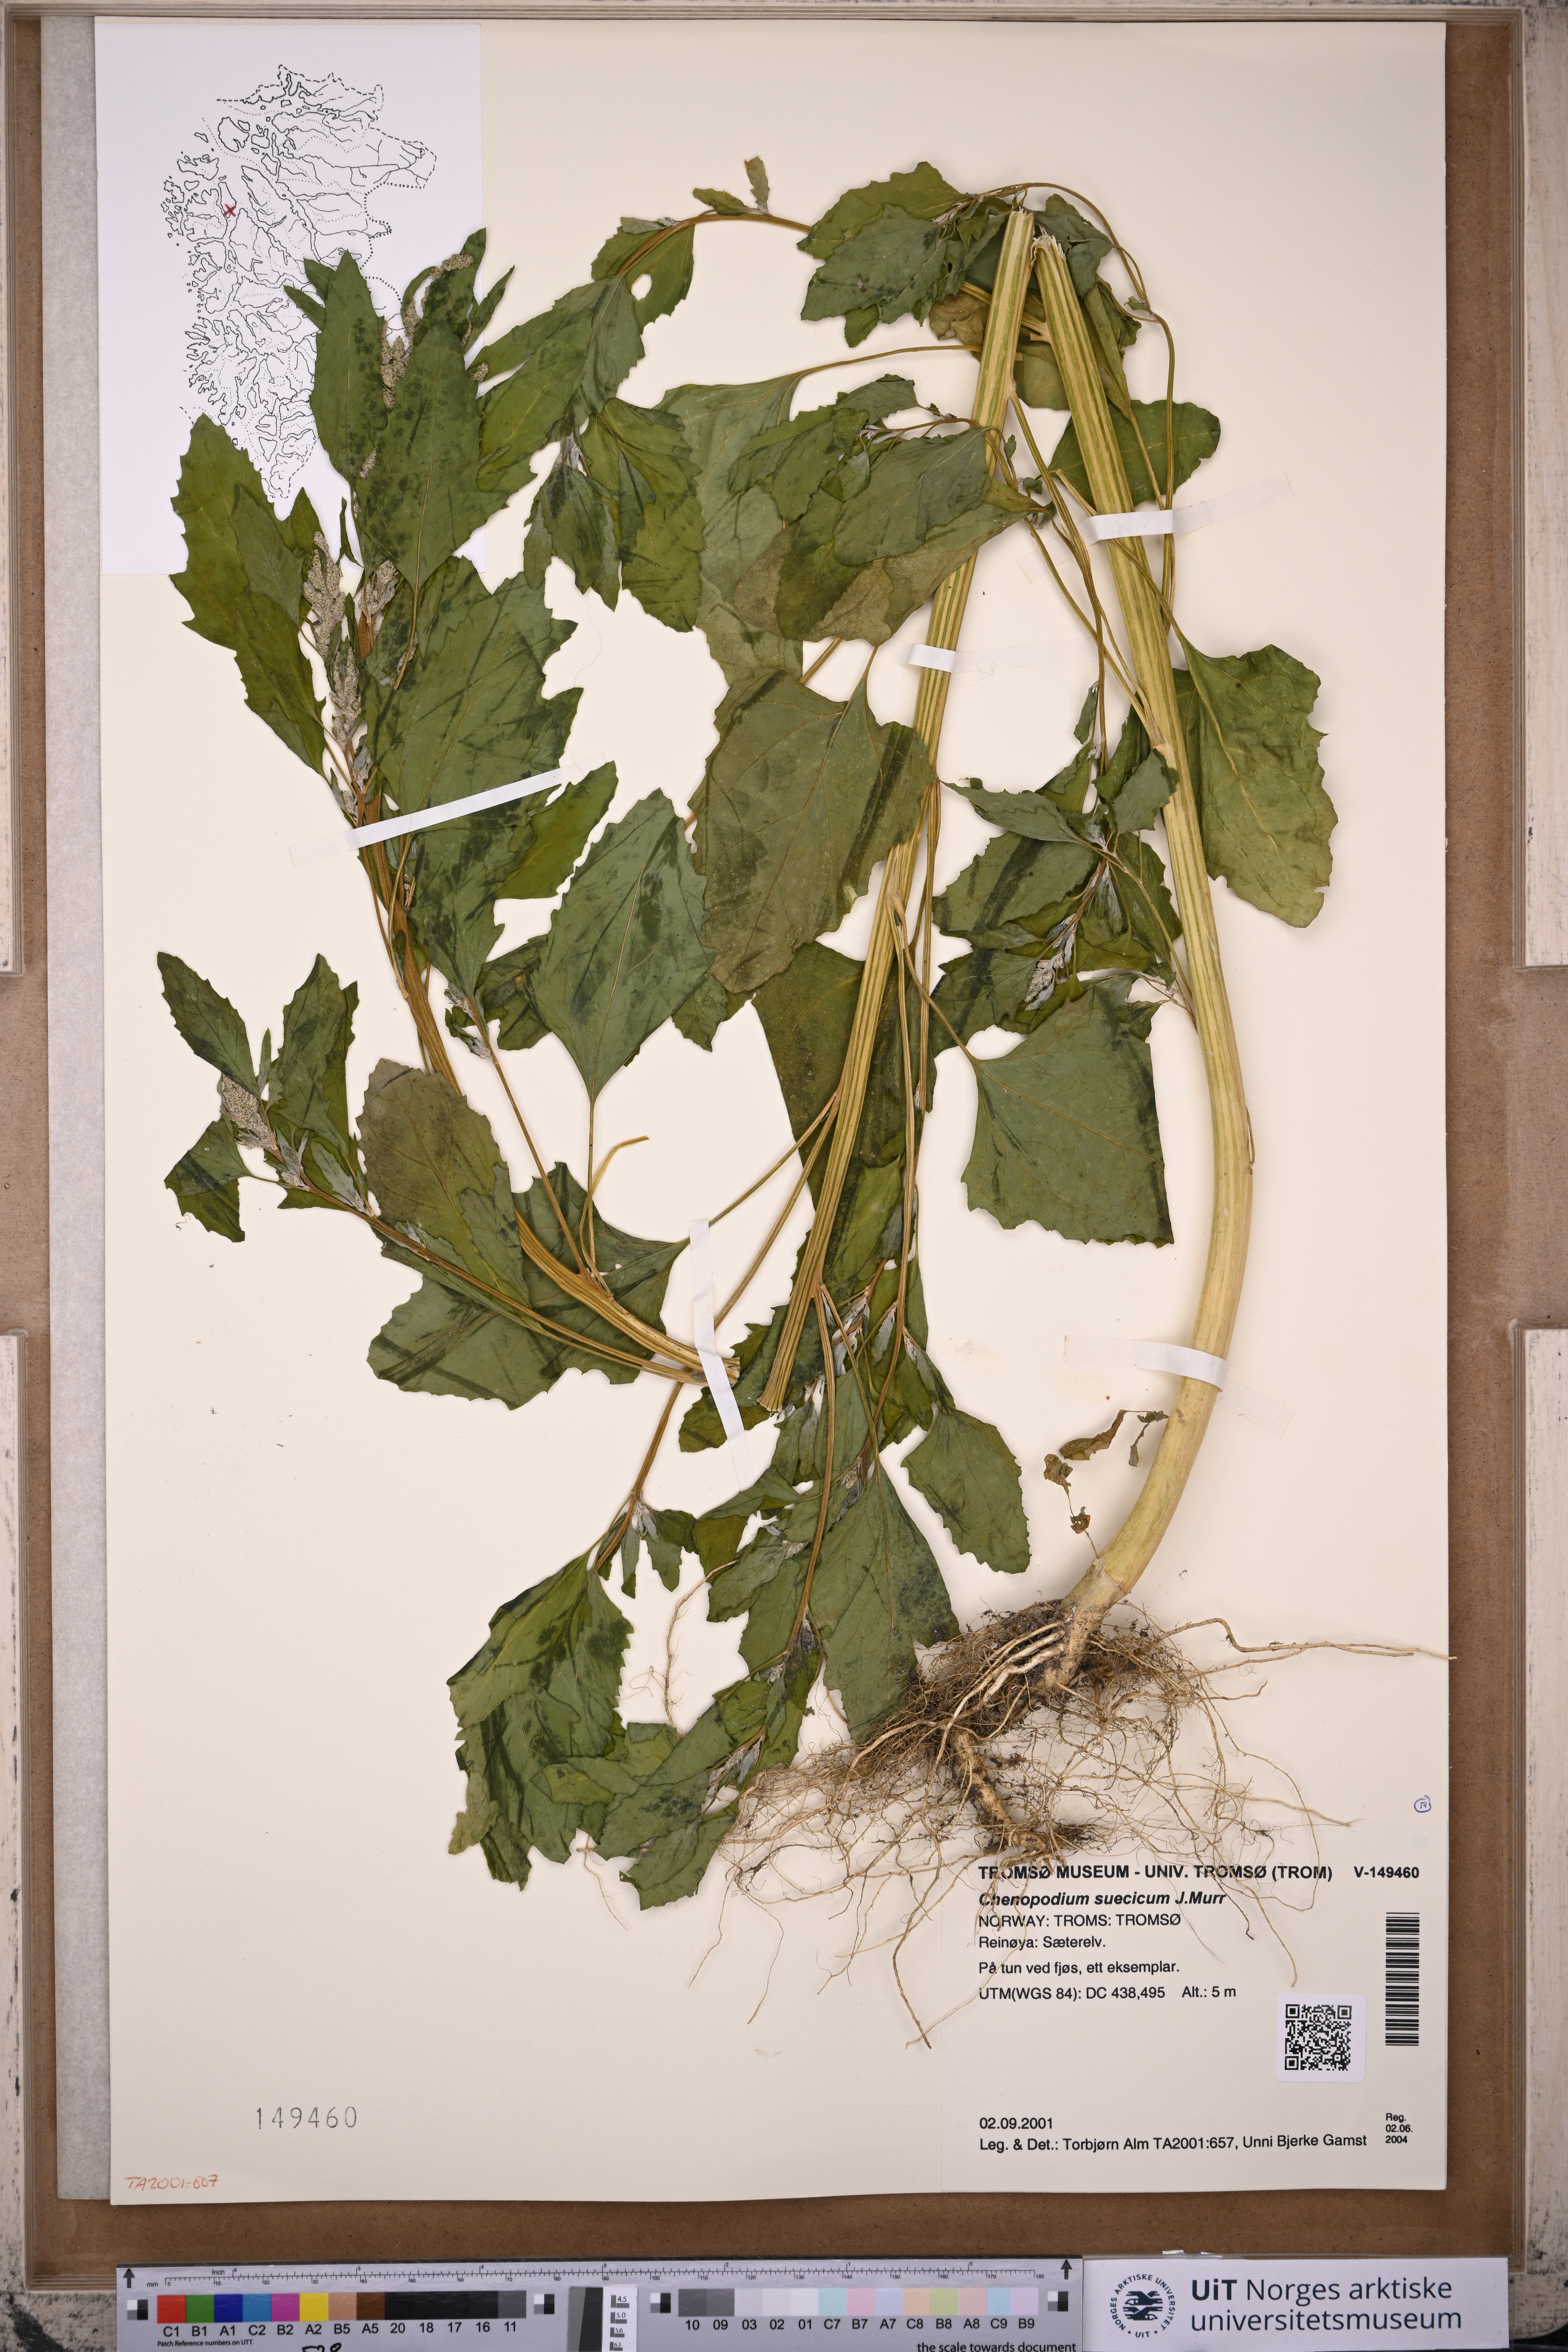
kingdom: Plantae
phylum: Tracheophyta
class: Magnoliopsida
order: Caryophyllales
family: Amaranthaceae
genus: Chenopodium
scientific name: Chenopodium suecicum
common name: Swedish goosefoot
